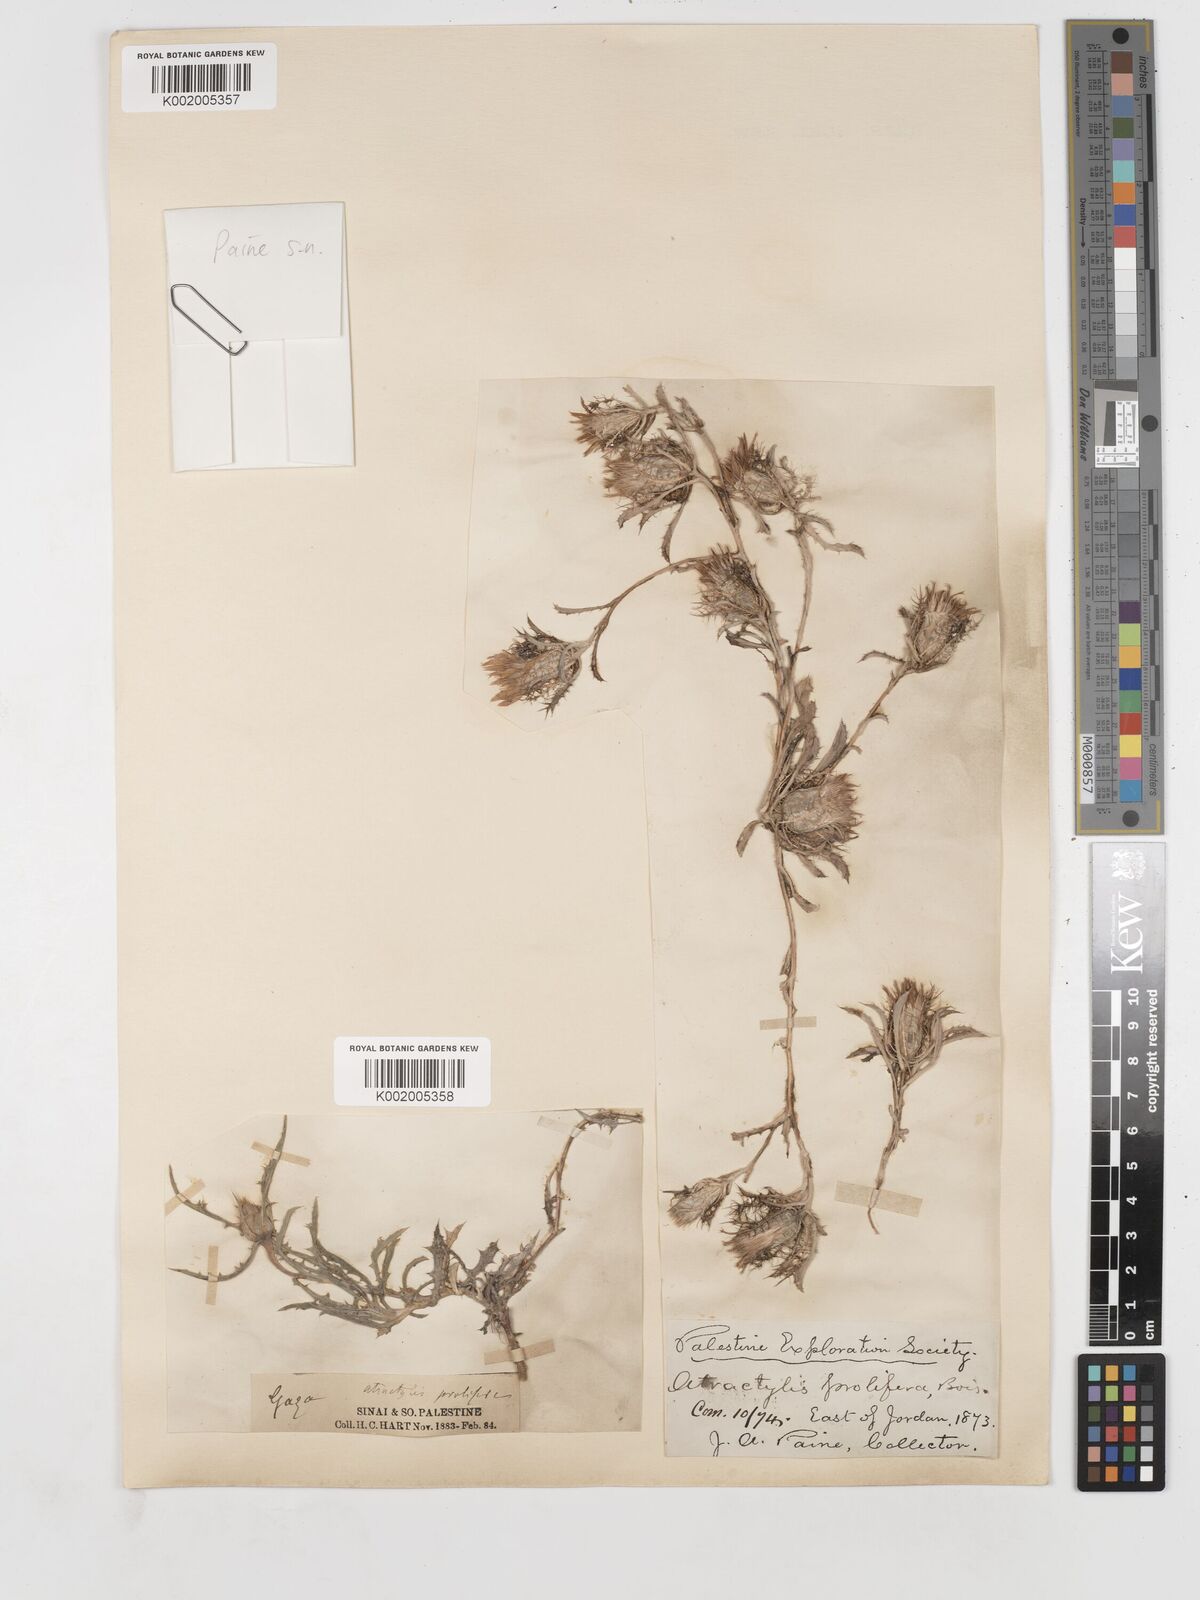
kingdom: Plantae
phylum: Tracheophyta
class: Magnoliopsida
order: Asterales
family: Asteraceae
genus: Atractylis
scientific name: Atractylis prolifera
